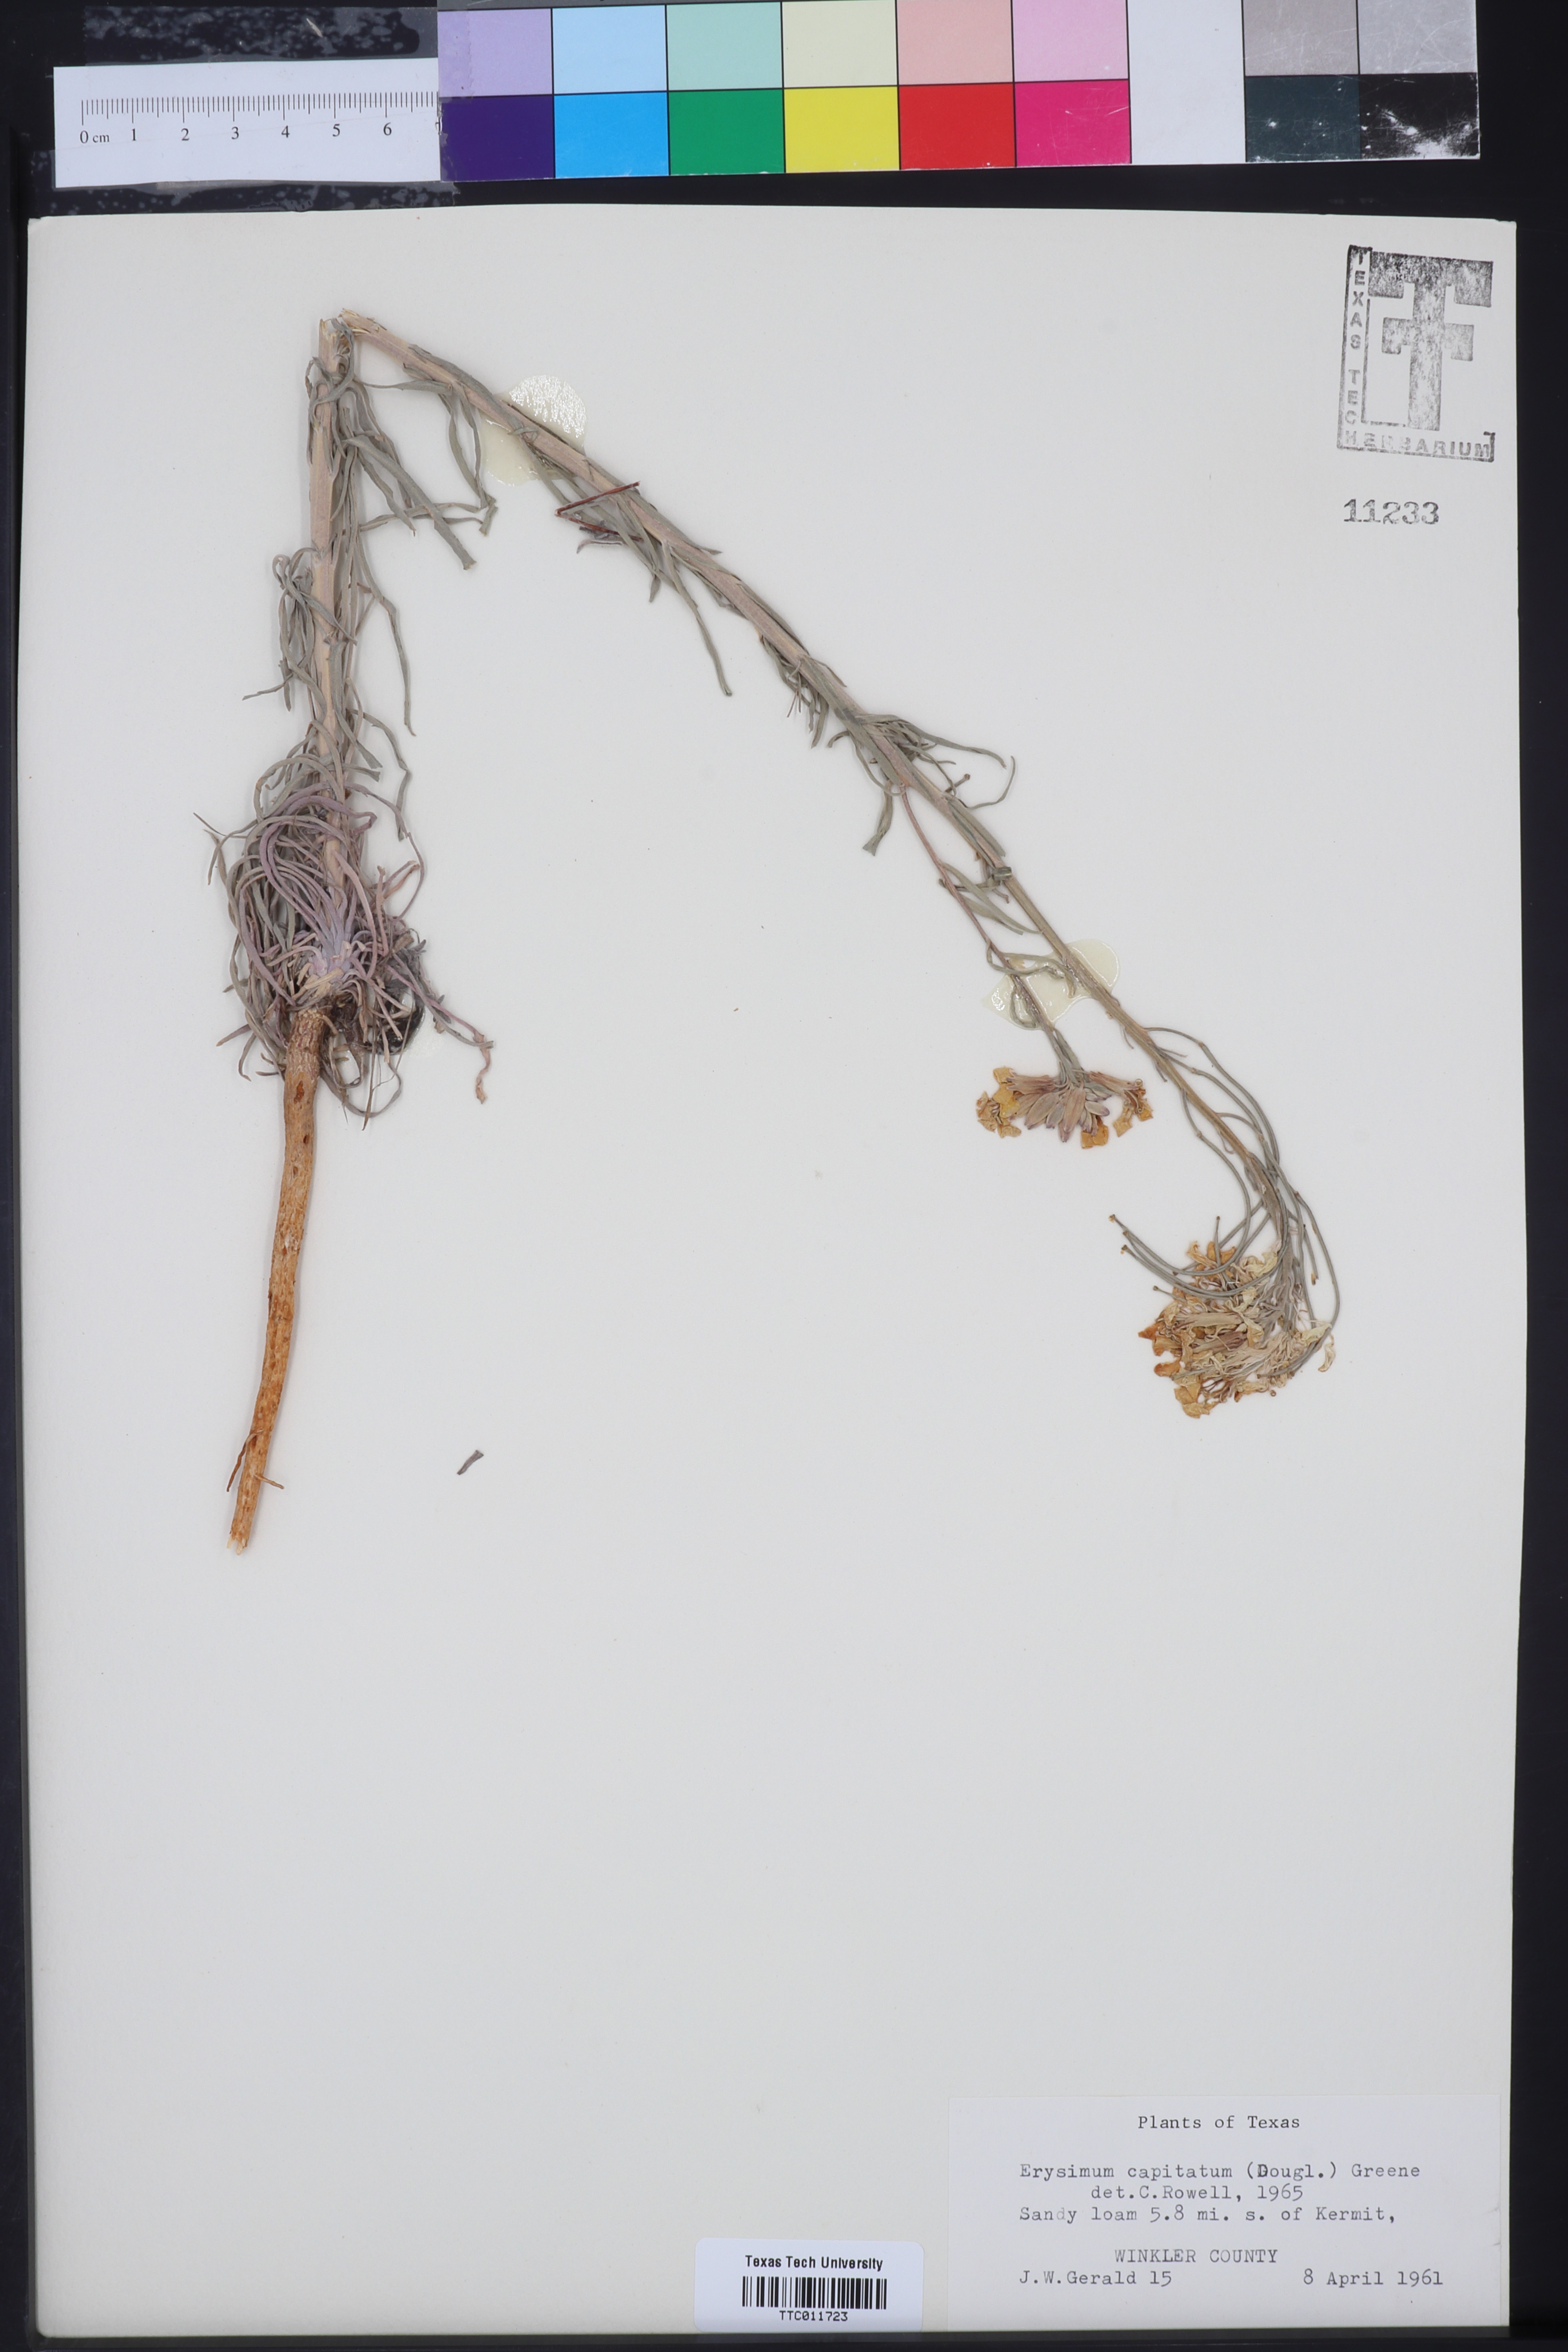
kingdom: Plantae
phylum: Tracheophyta
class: Magnoliopsida
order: Brassicales
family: Brassicaceae
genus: Erysimum
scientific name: Erysimum capitatum
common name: Western wallflower
